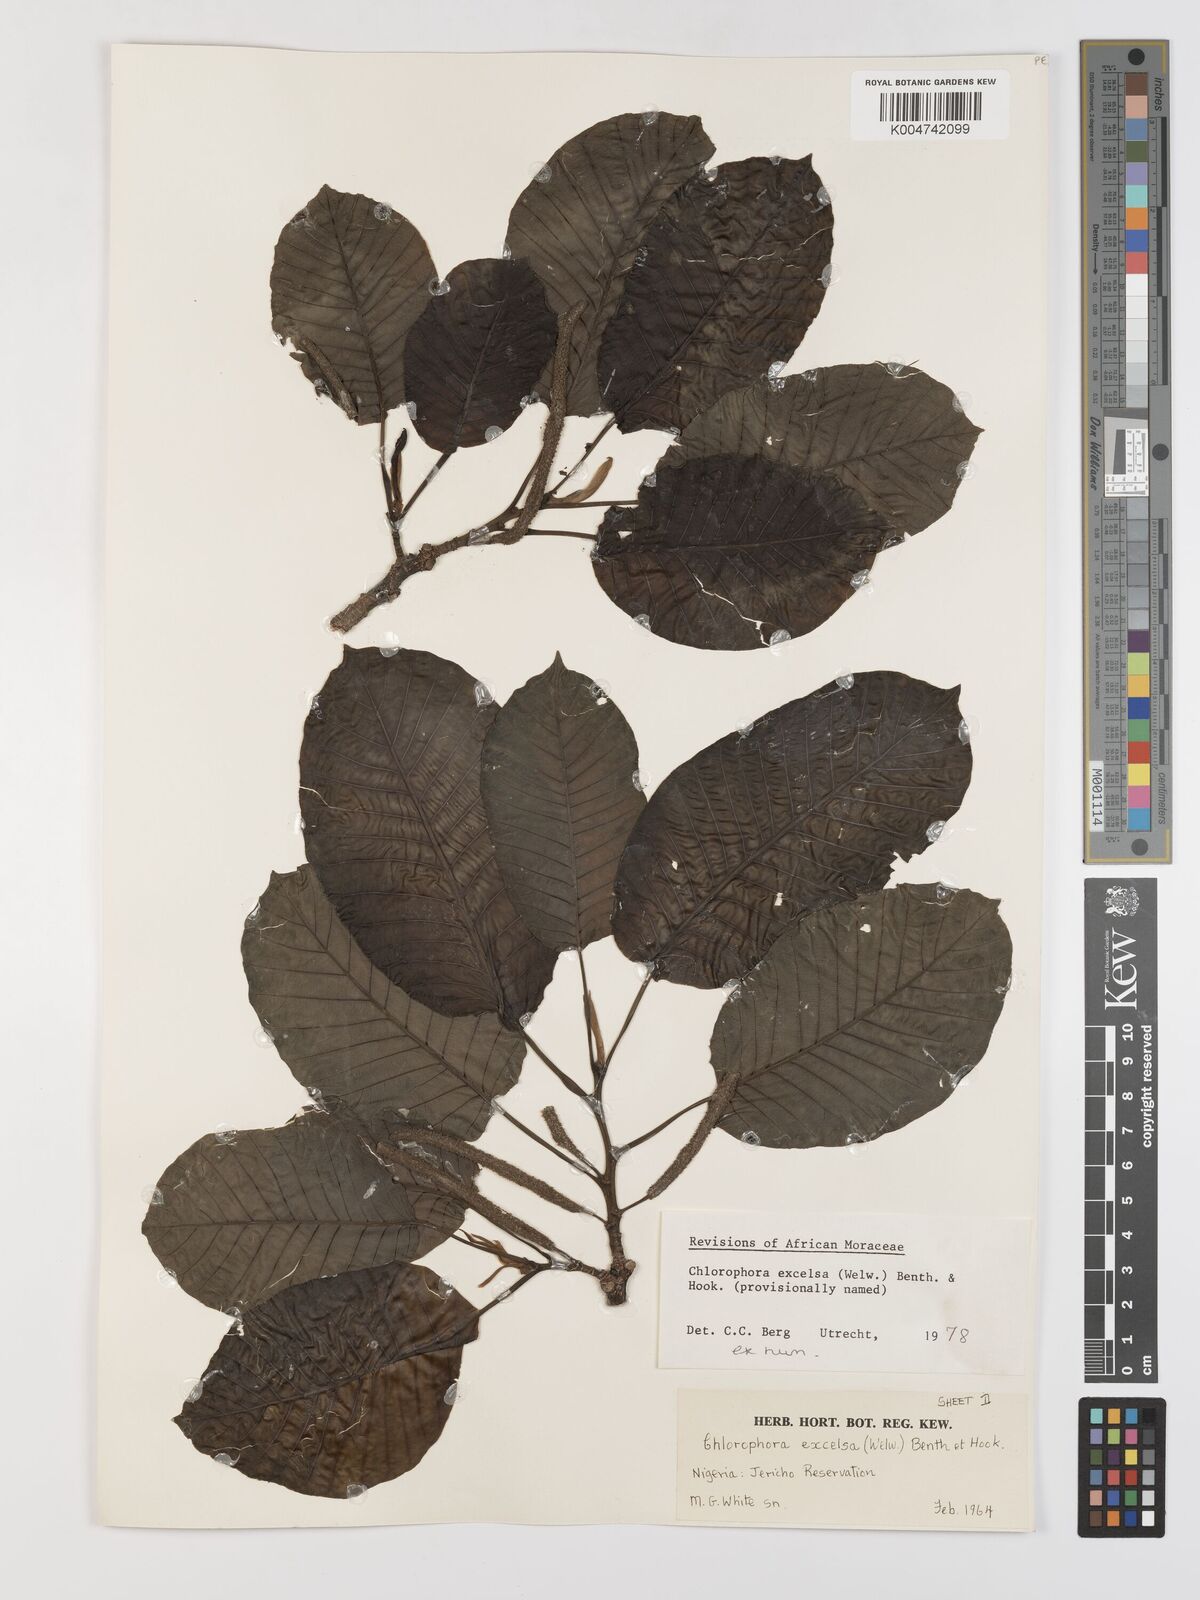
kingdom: Plantae
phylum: Tracheophyta
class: Magnoliopsida
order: Rosales
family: Moraceae
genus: Milicia
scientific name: Milicia excelsa
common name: African teak
